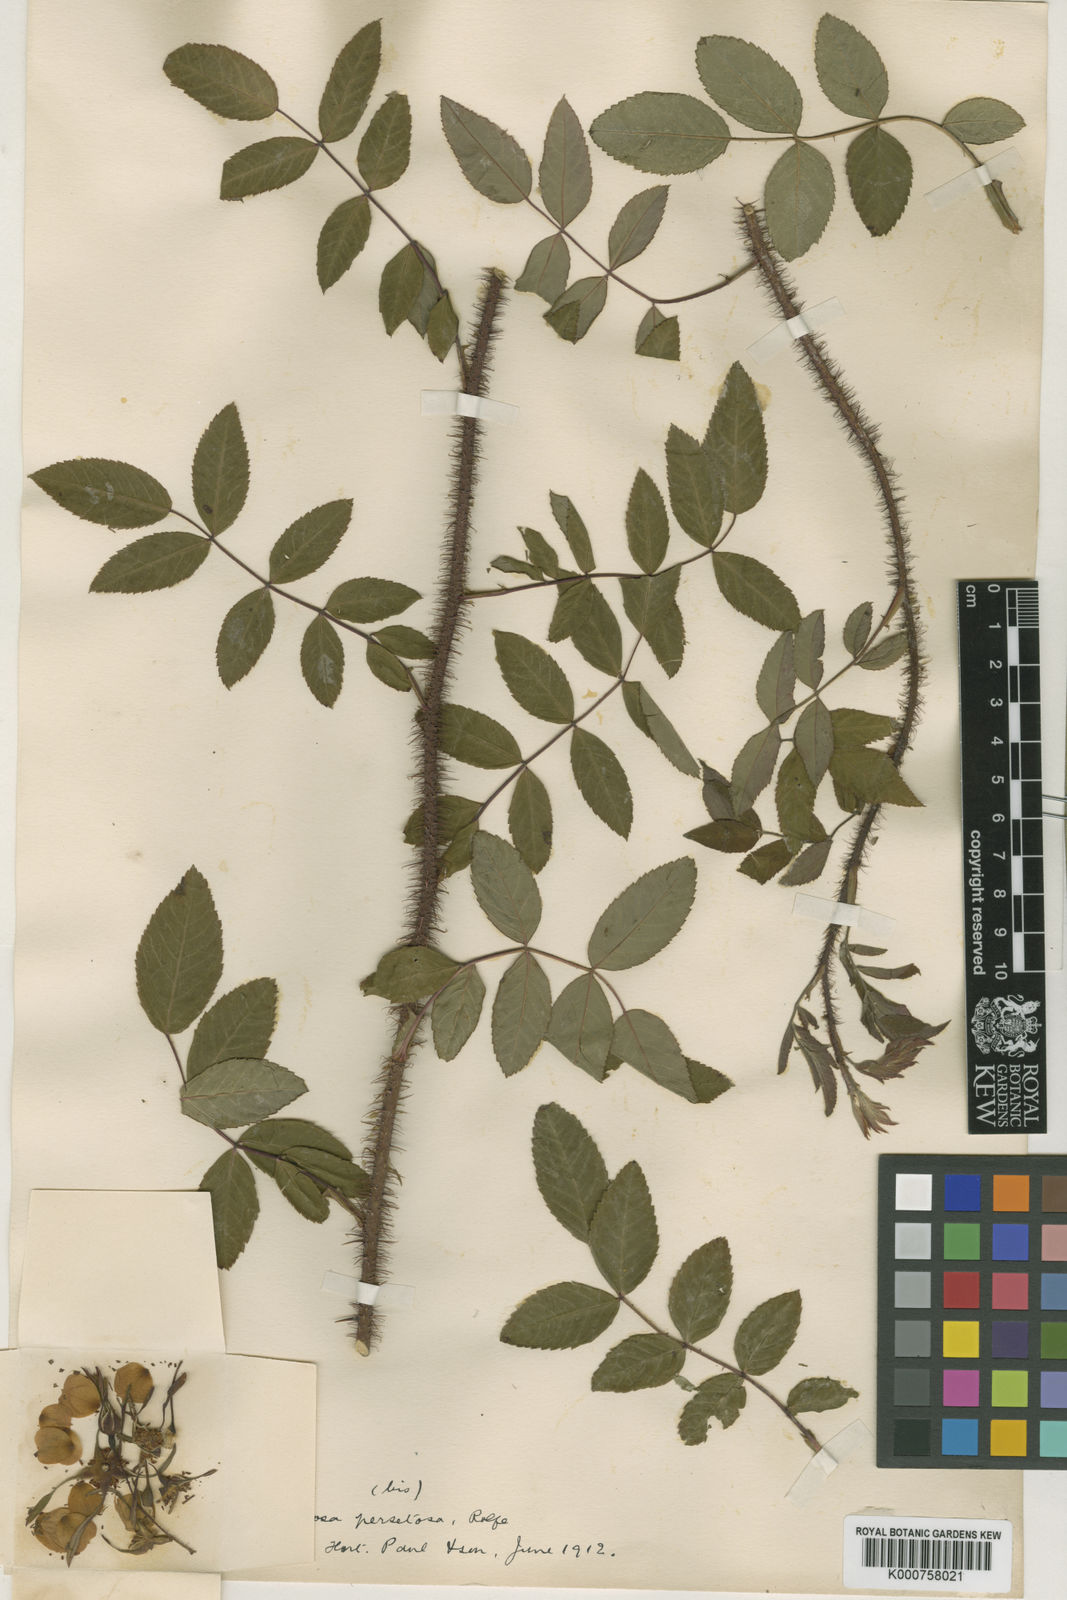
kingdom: Plantae
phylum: Tracheophyta
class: Magnoliopsida
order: Rosales
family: Rosaceae
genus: Rosa
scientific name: Rosa persetosa
